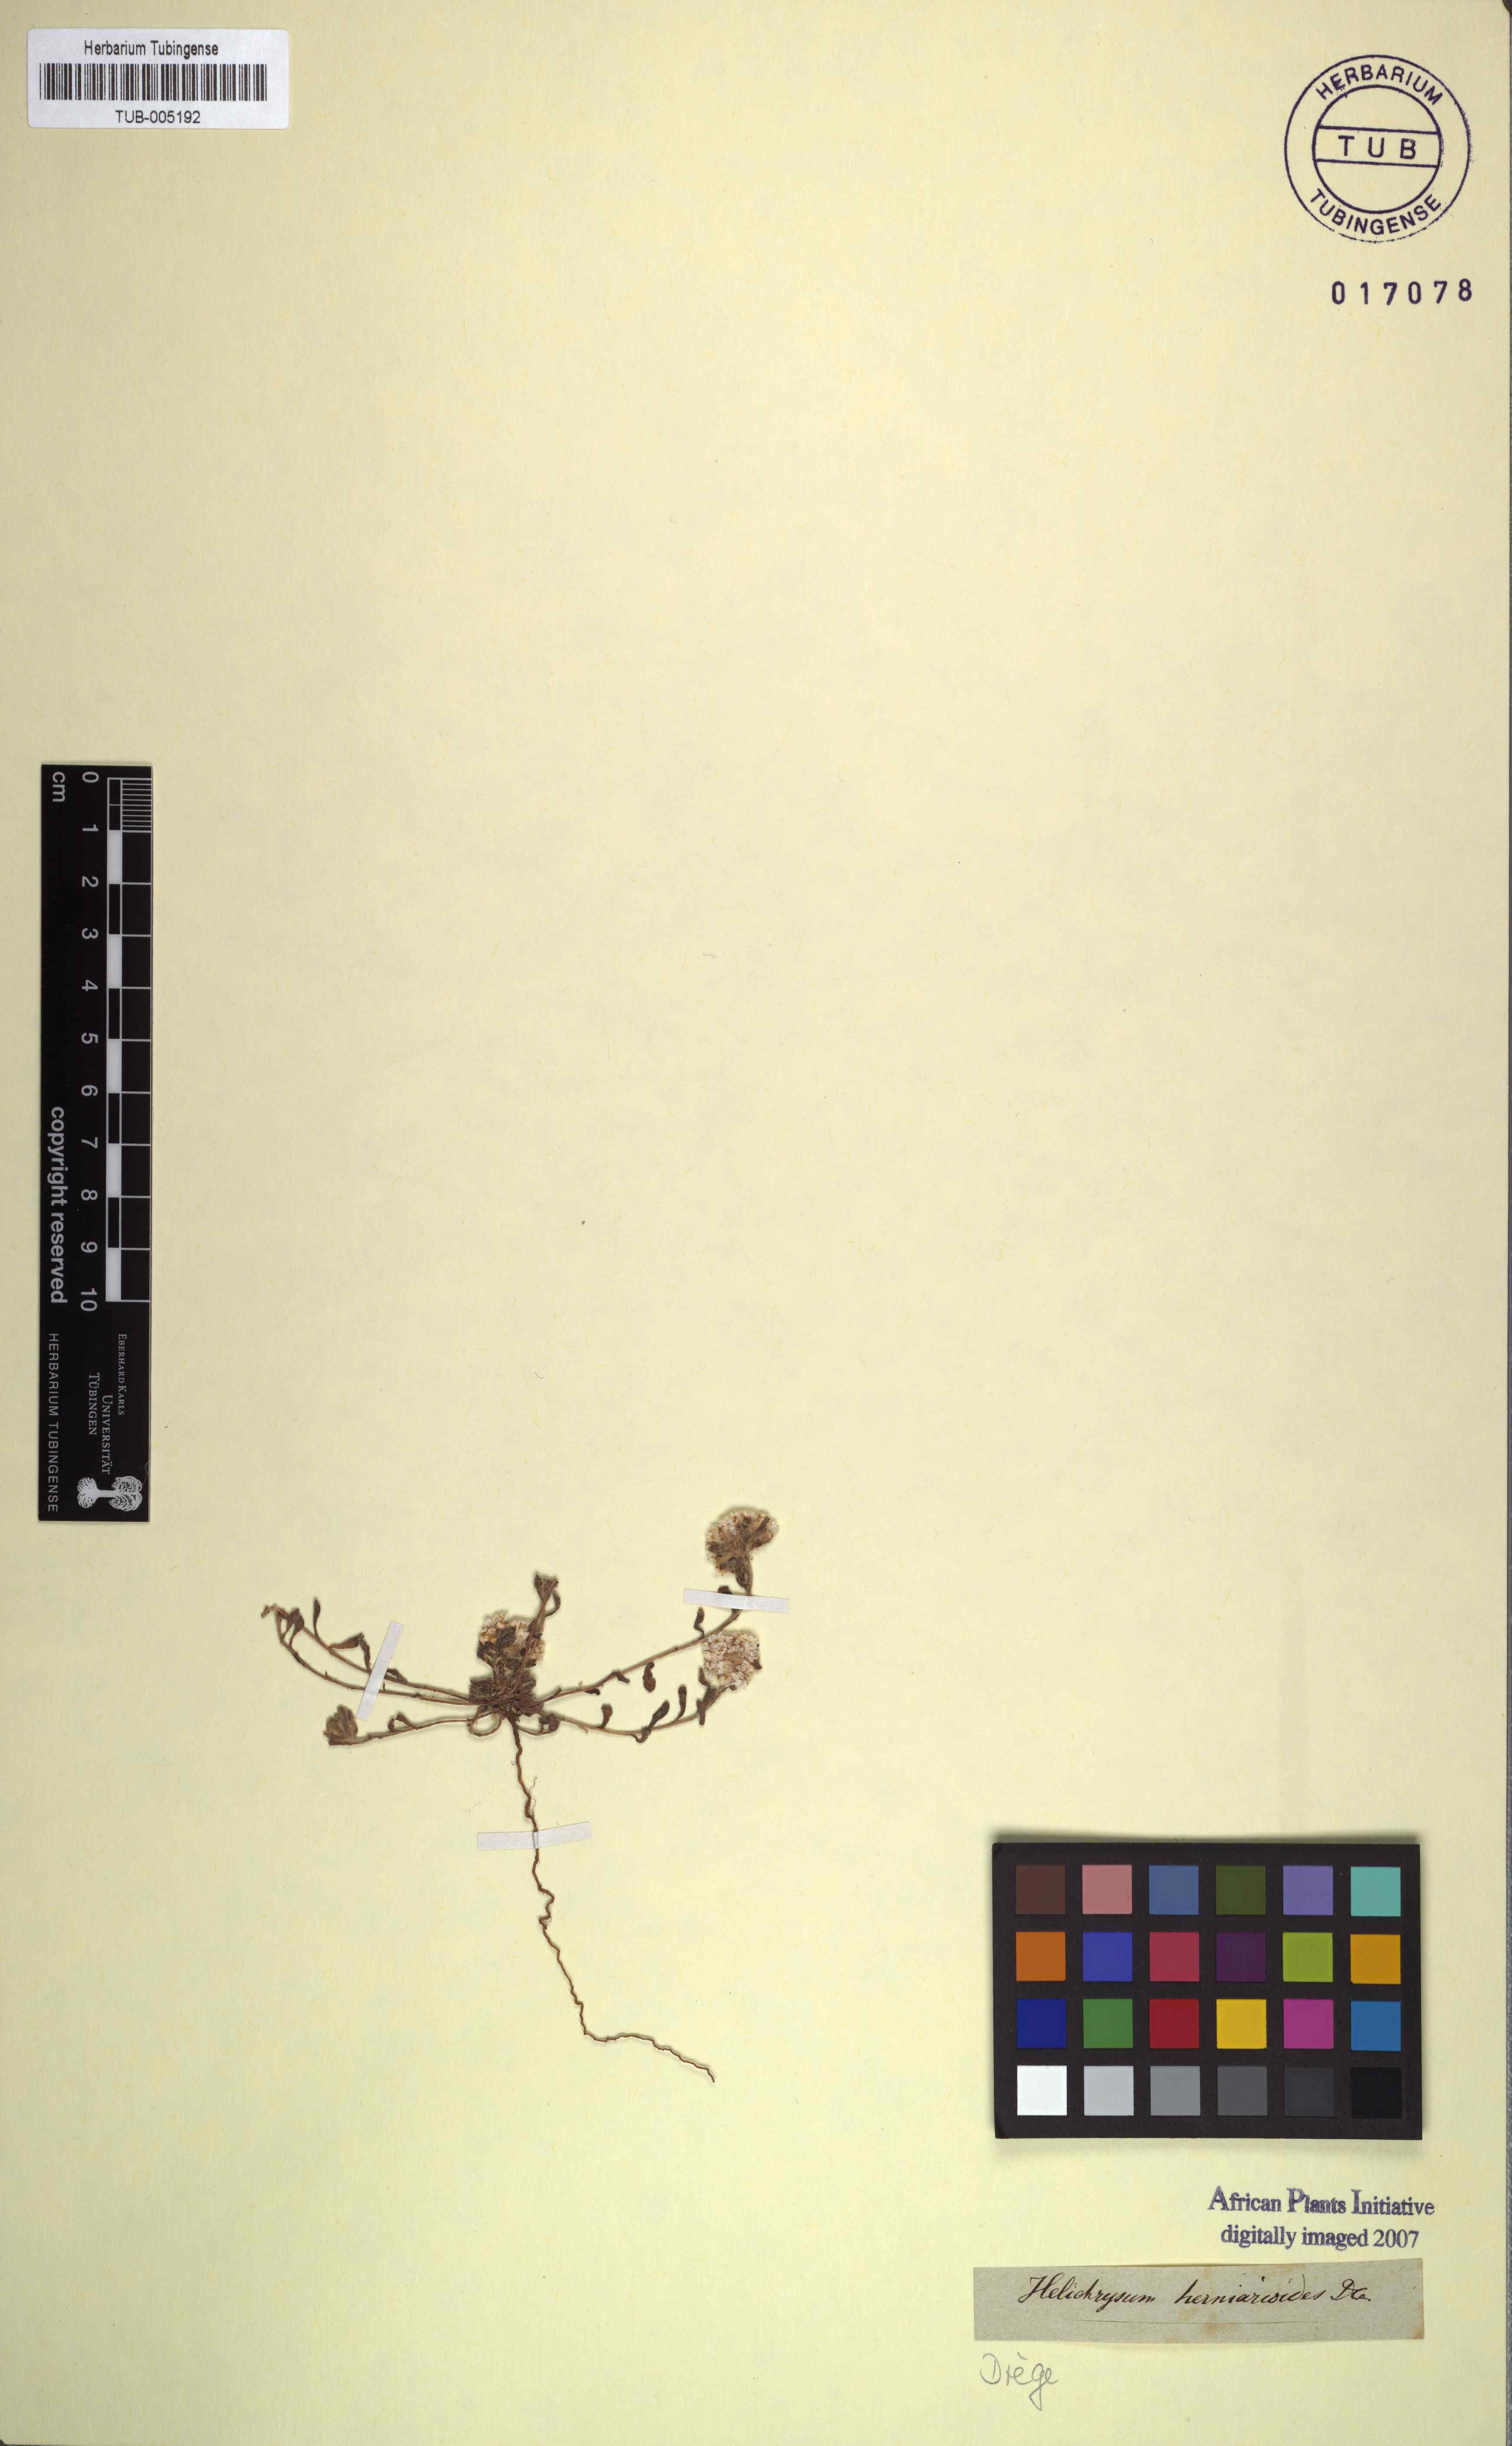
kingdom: Plantae
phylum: Tracheophyta
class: Magnoliopsida
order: Asterales
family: Asteraceae
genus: Helichrysum
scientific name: Helichrysum herniarioides
